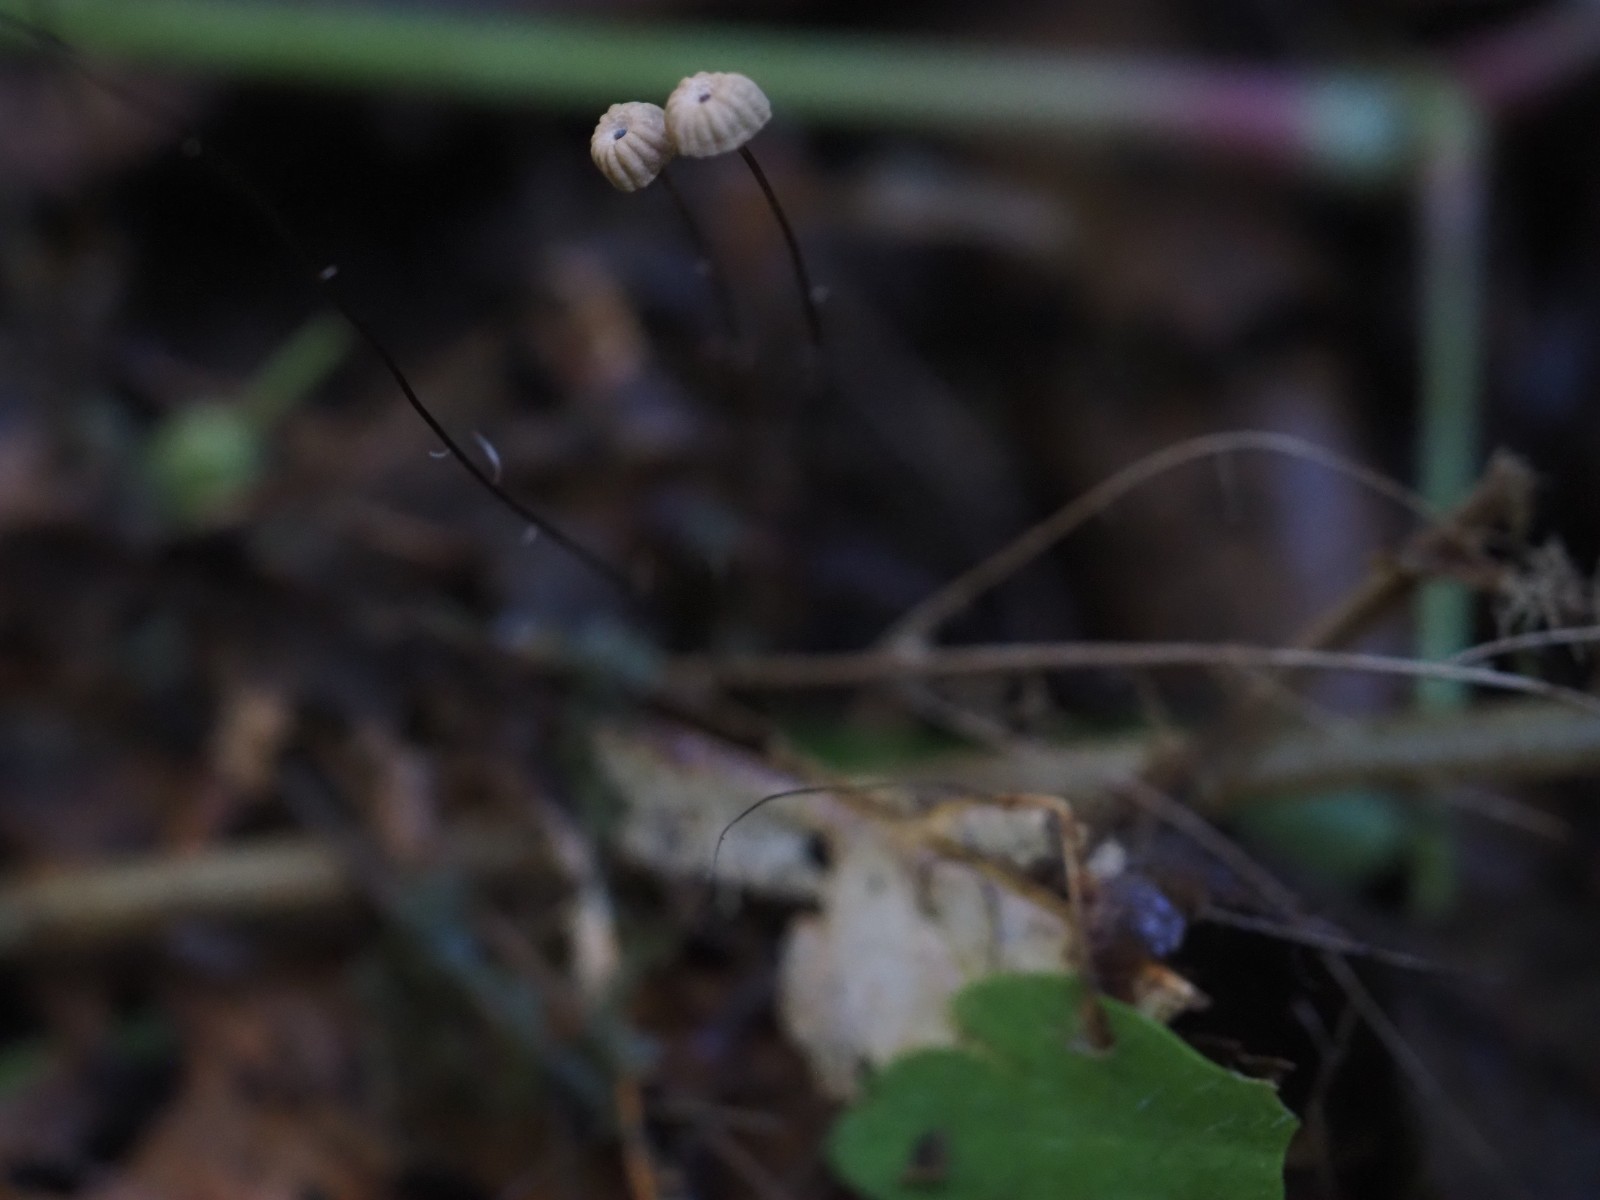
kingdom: Fungi
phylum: Basidiomycota
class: Agaricomycetes
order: Agaricales
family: Marasmiaceae
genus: Marasmius
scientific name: Marasmius bulliardii
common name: furet bruskhat
